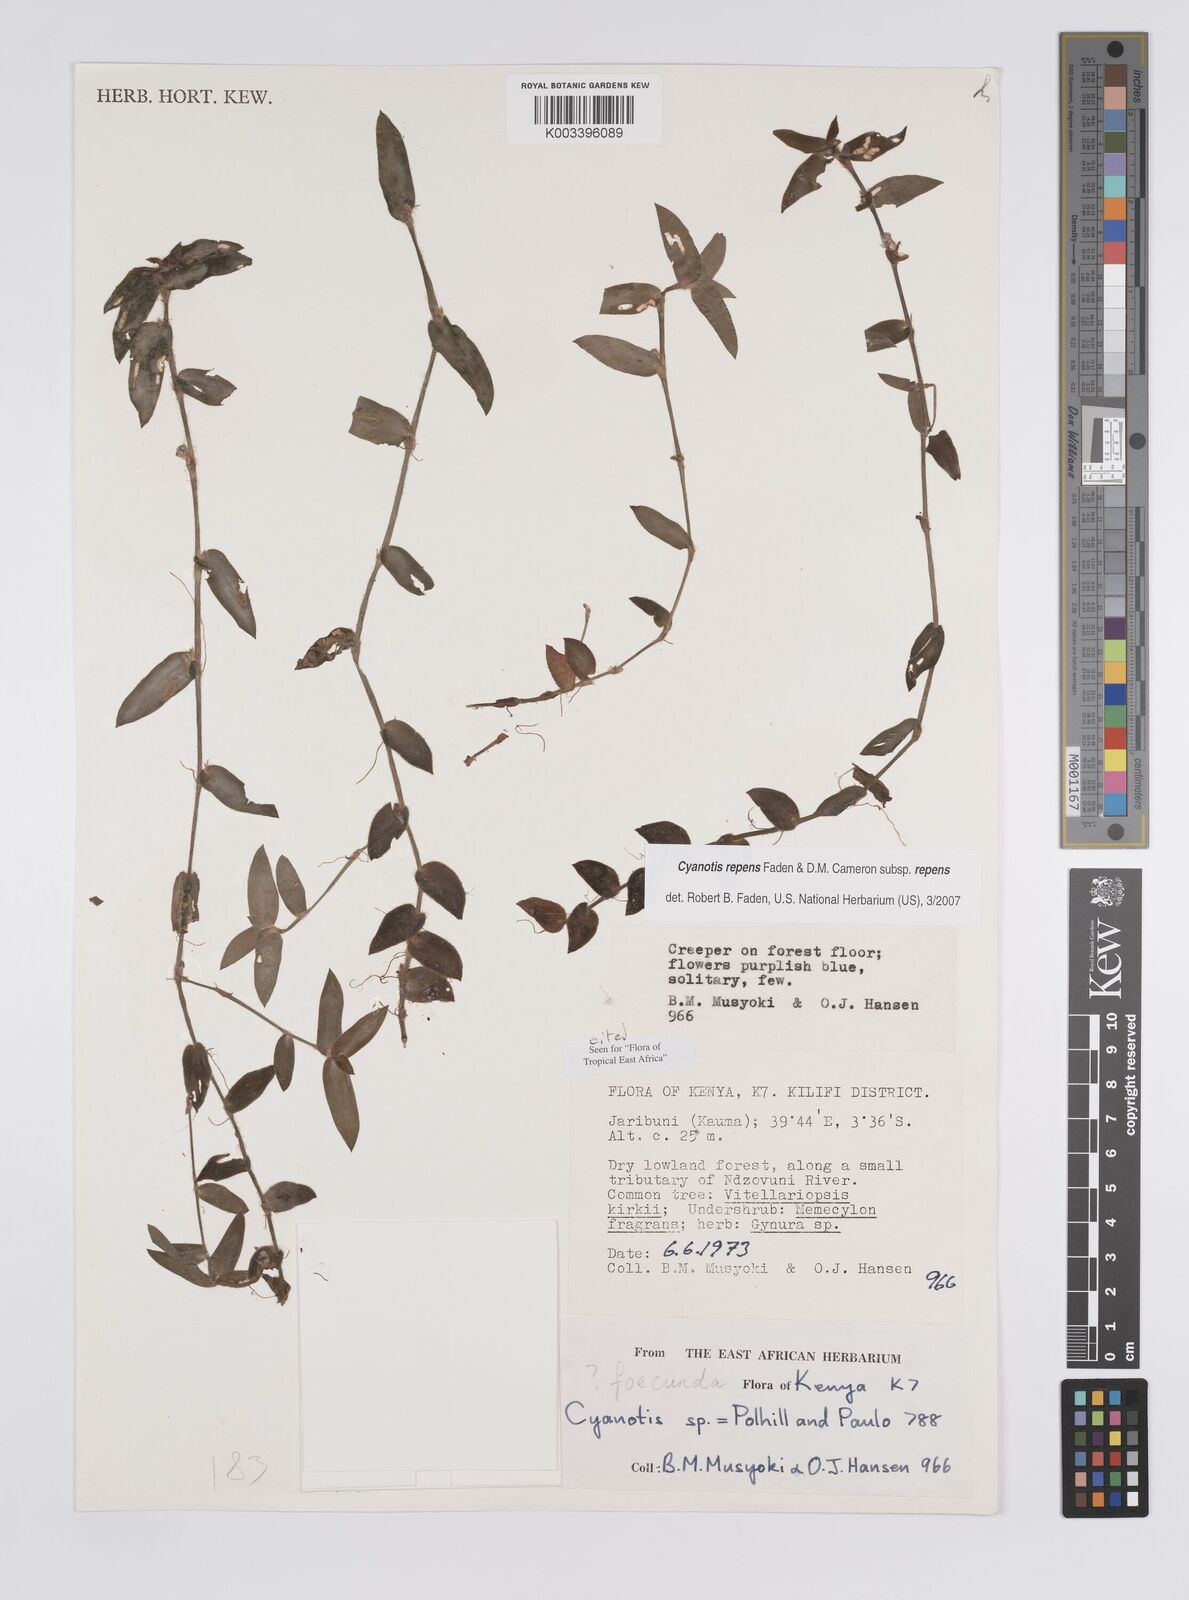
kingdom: Plantae
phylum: Tracheophyta
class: Liliopsida
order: Commelinales
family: Commelinaceae
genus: Cyanotis
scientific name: Cyanotis repens
